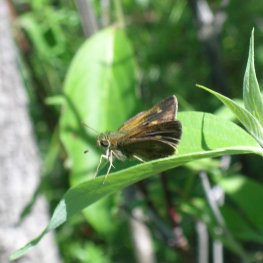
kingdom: Animalia
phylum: Arthropoda
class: Insecta
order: Lepidoptera
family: Hesperiidae
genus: Polites
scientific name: Polites egeremet
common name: Northern Broken-Dash
